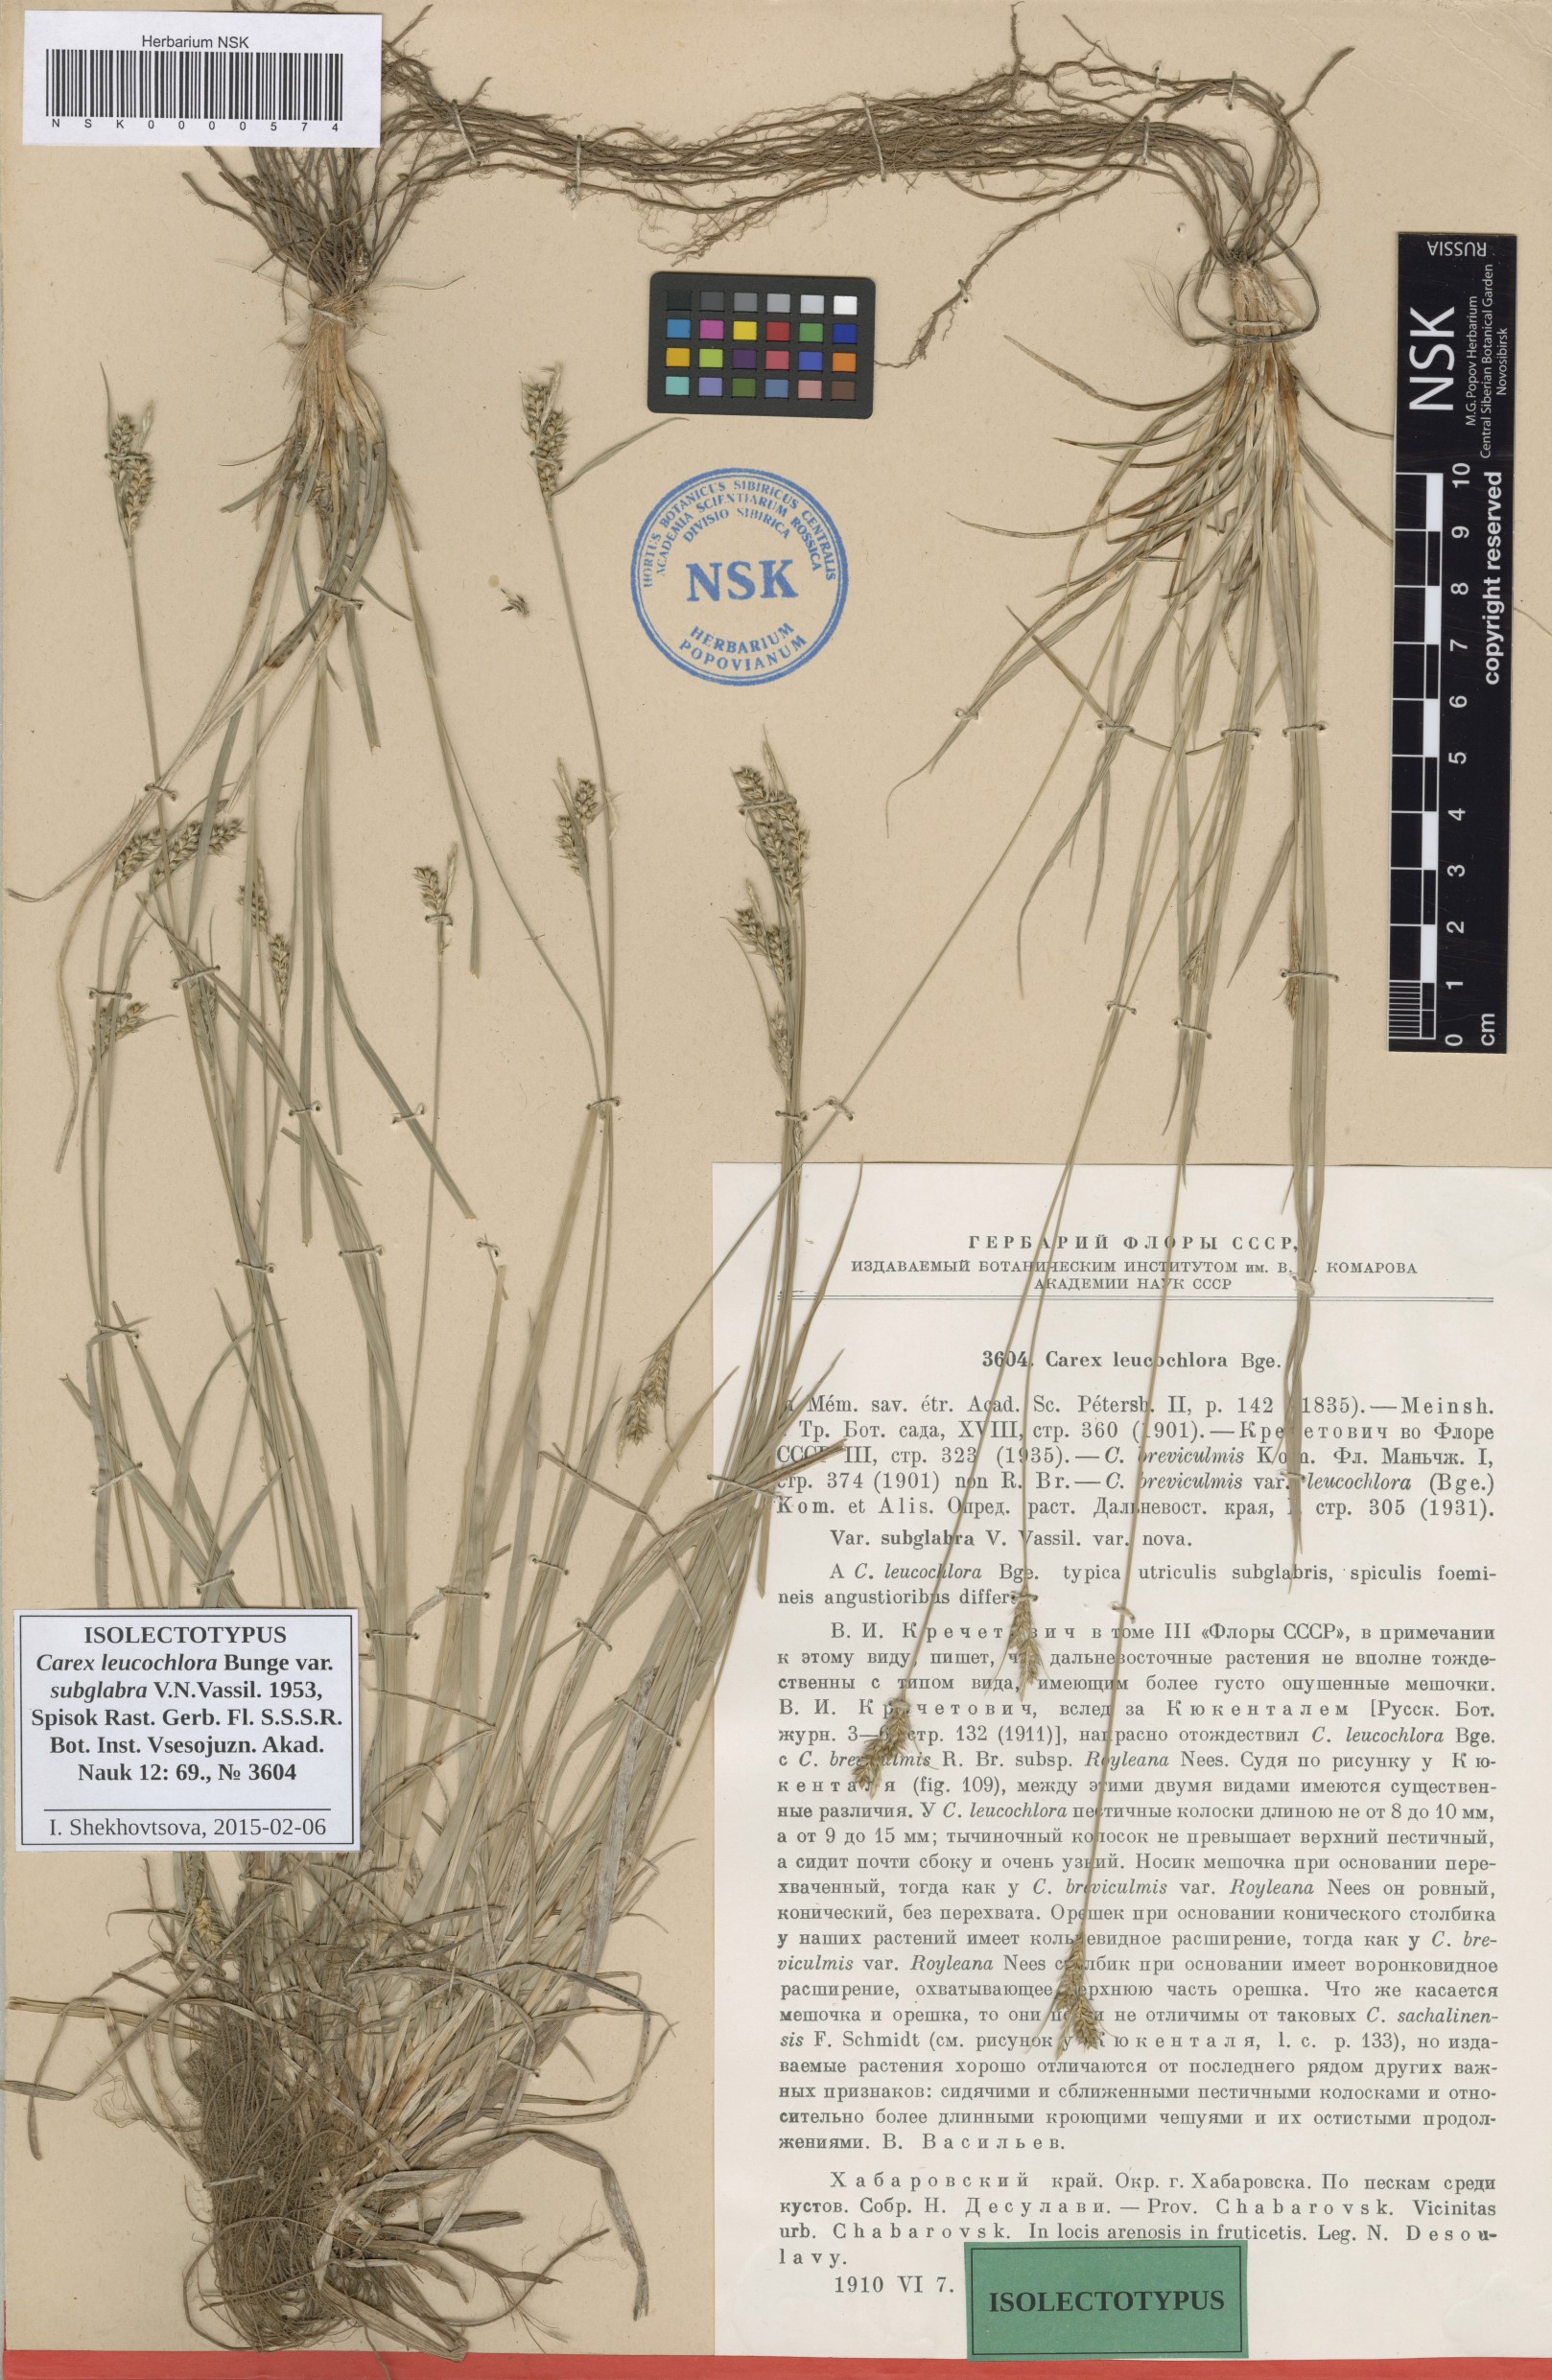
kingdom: Plantae
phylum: Tracheophyta
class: Liliopsida
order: Poales
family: Cyperaceae
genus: Carex
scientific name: Carex leucochlora
